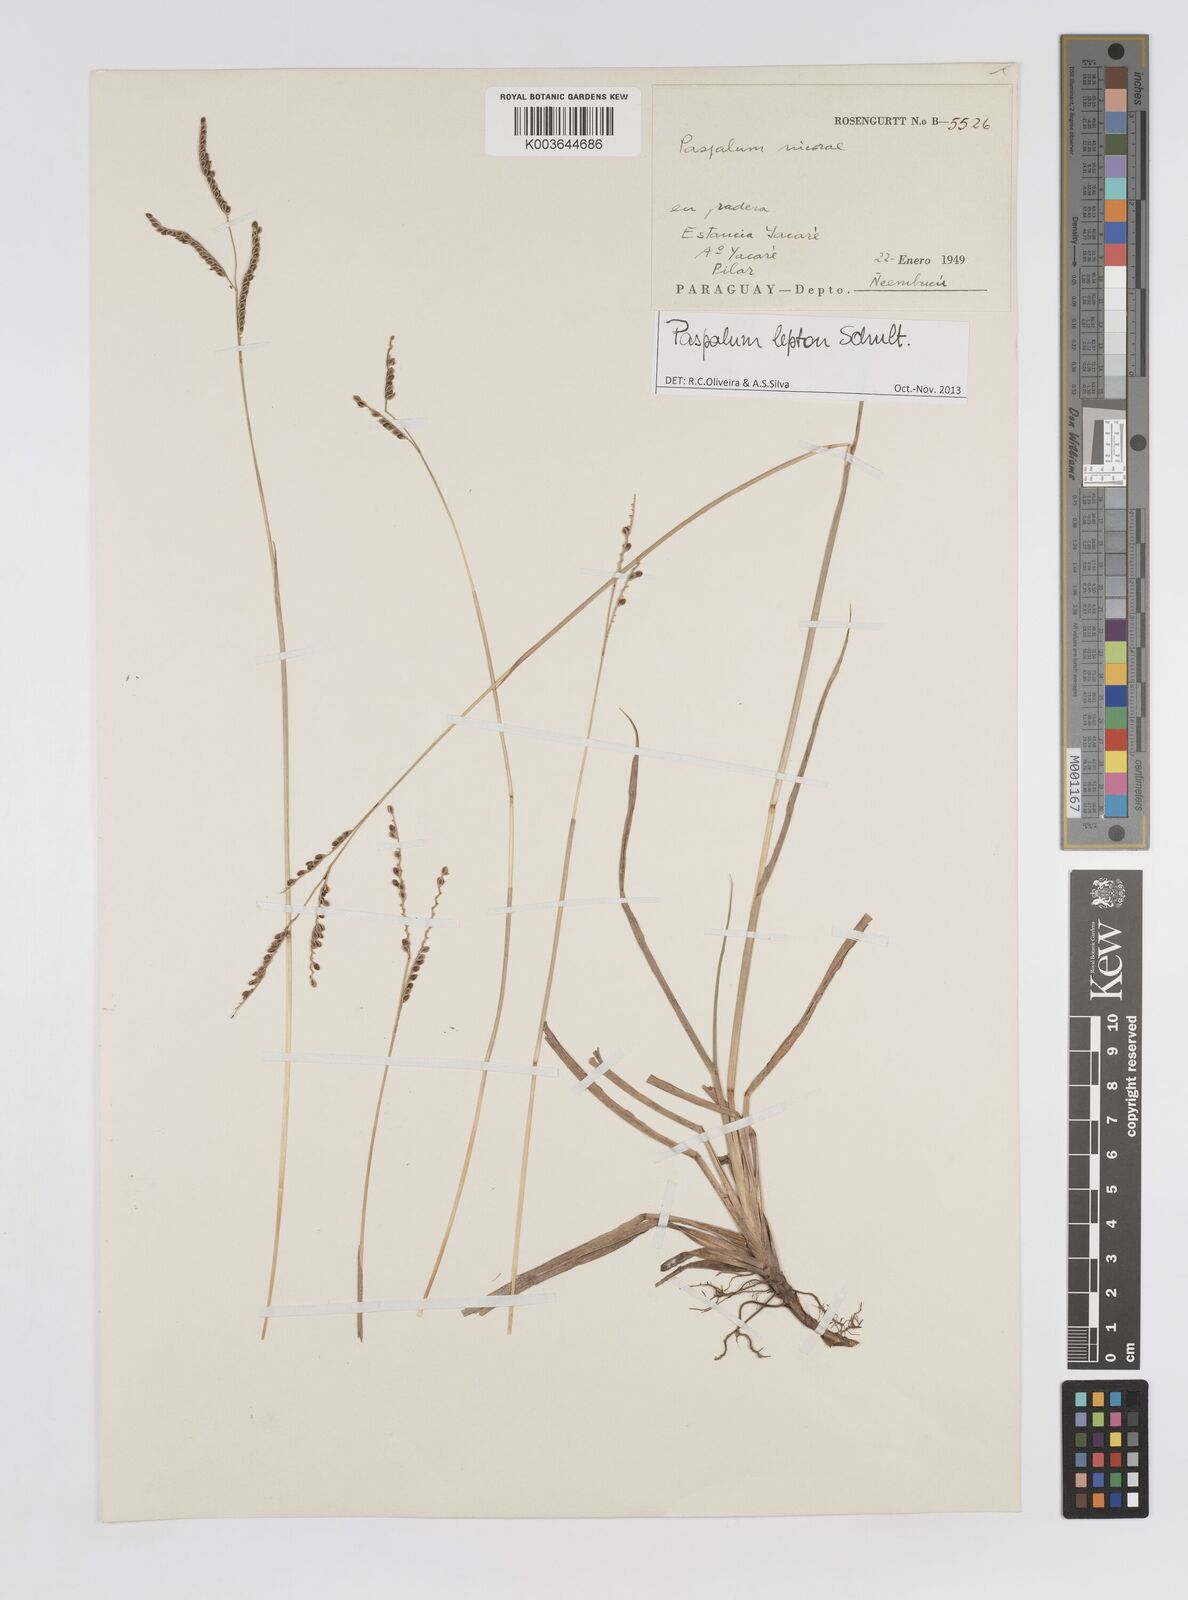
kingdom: Plantae
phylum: Tracheophyta
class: Liliopsida
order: Poales
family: Poaceae
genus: Paspalum
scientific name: Paspalum lepton
